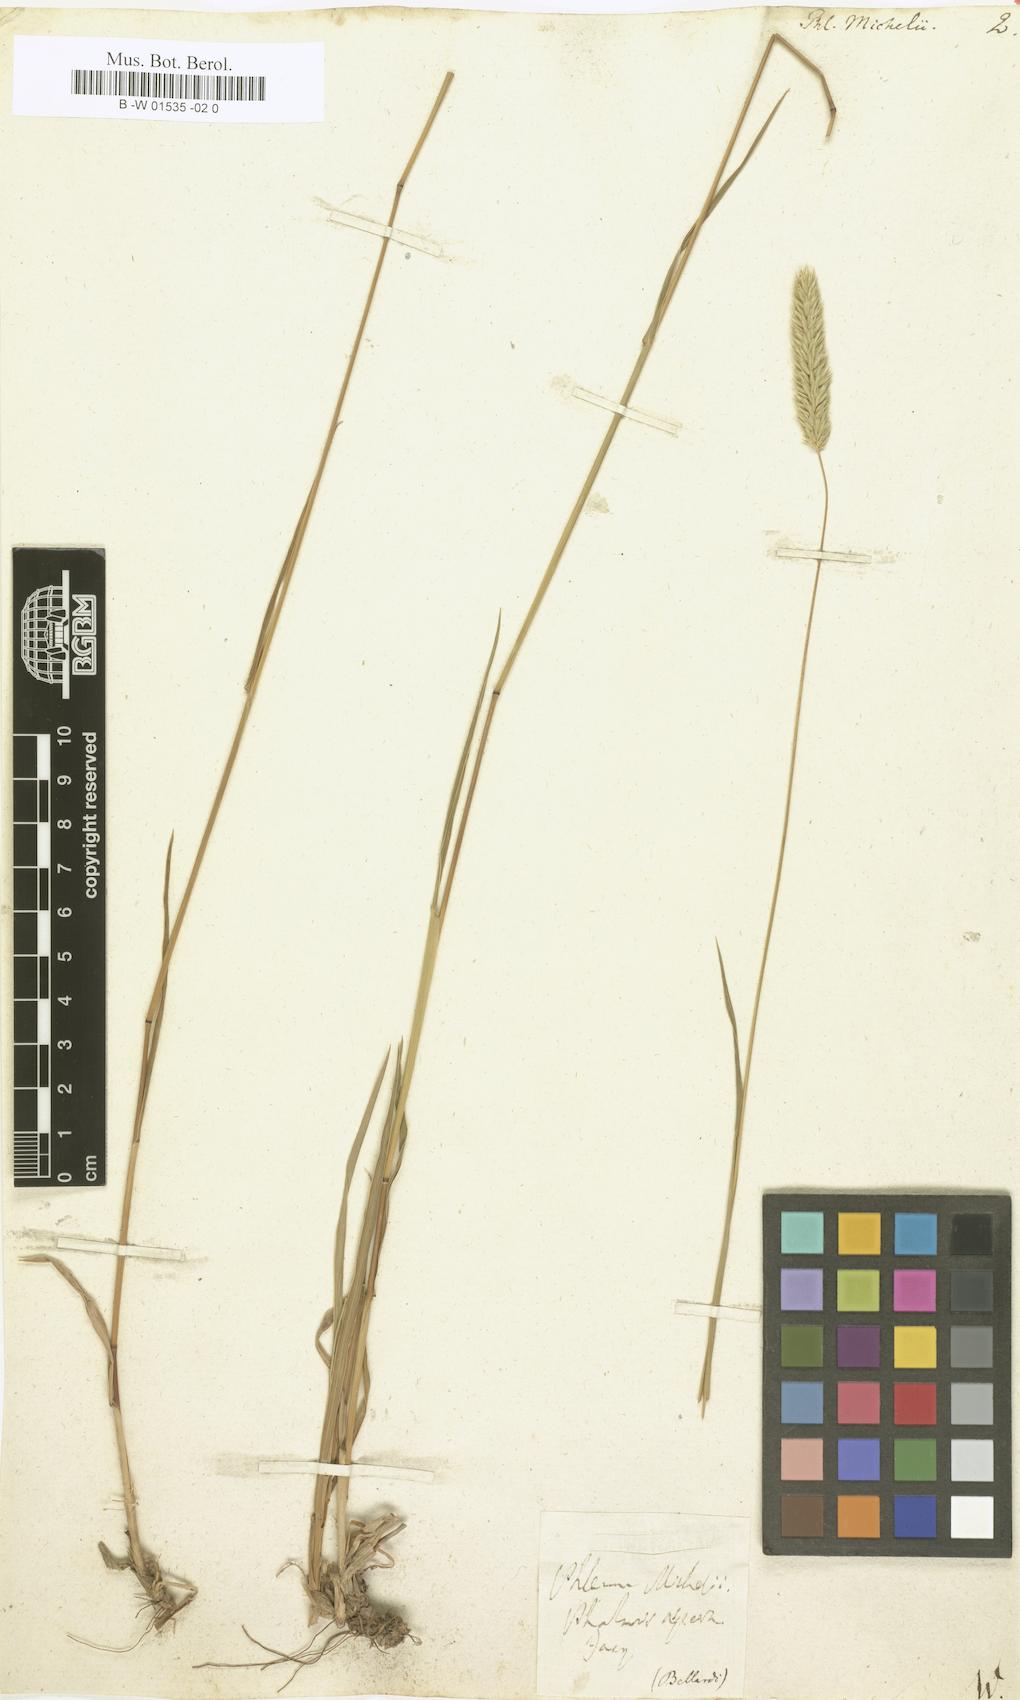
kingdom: Plantae
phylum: Tracheophyta
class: Liliopsida
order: Poales
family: Poaceae
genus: Phleum
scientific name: Phleum hirsutum
